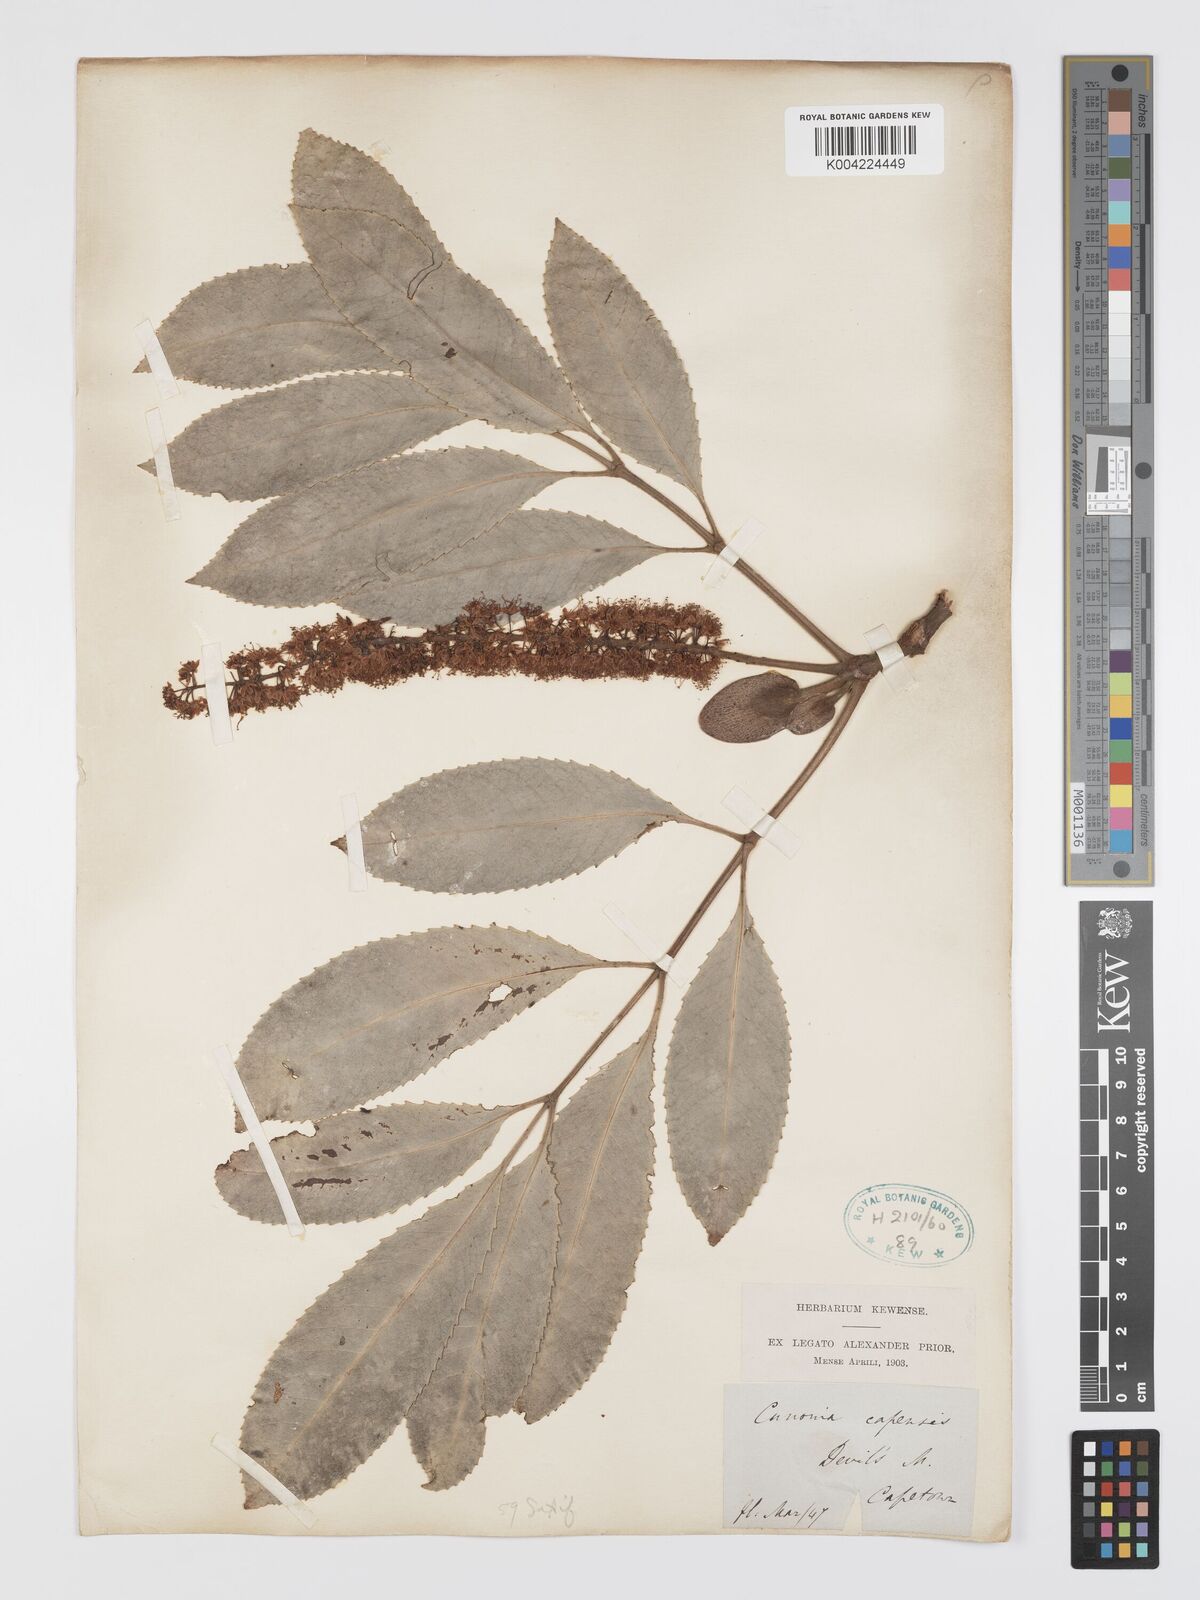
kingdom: Plantae
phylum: Tracheophyta
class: Magnoliopsida
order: Oxalidales
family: Cunoniaceae
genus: Cunonia
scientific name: Cunonia capensis
